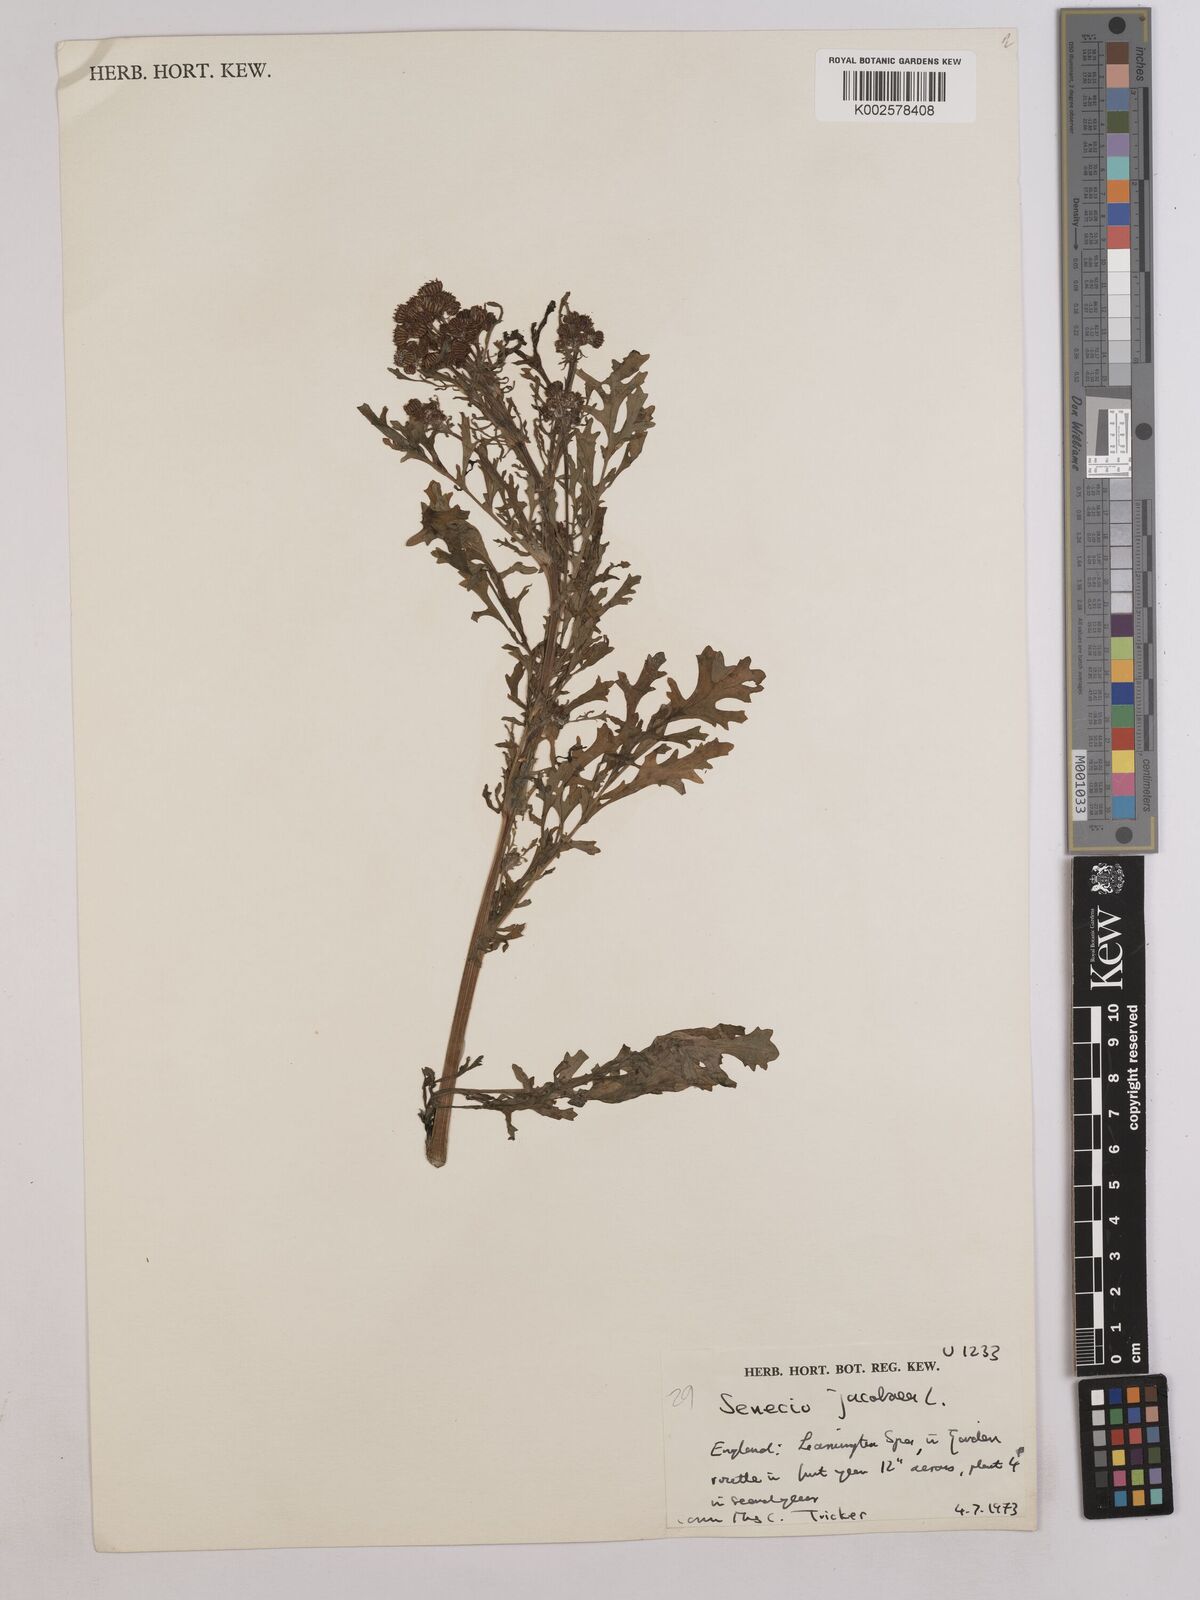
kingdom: Plantae
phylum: Tracheophyta
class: Magnoliopsida
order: Asterales
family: Asteraceae
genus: Jacobaea
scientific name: Jacobaea vulgaris
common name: Stinking willie
